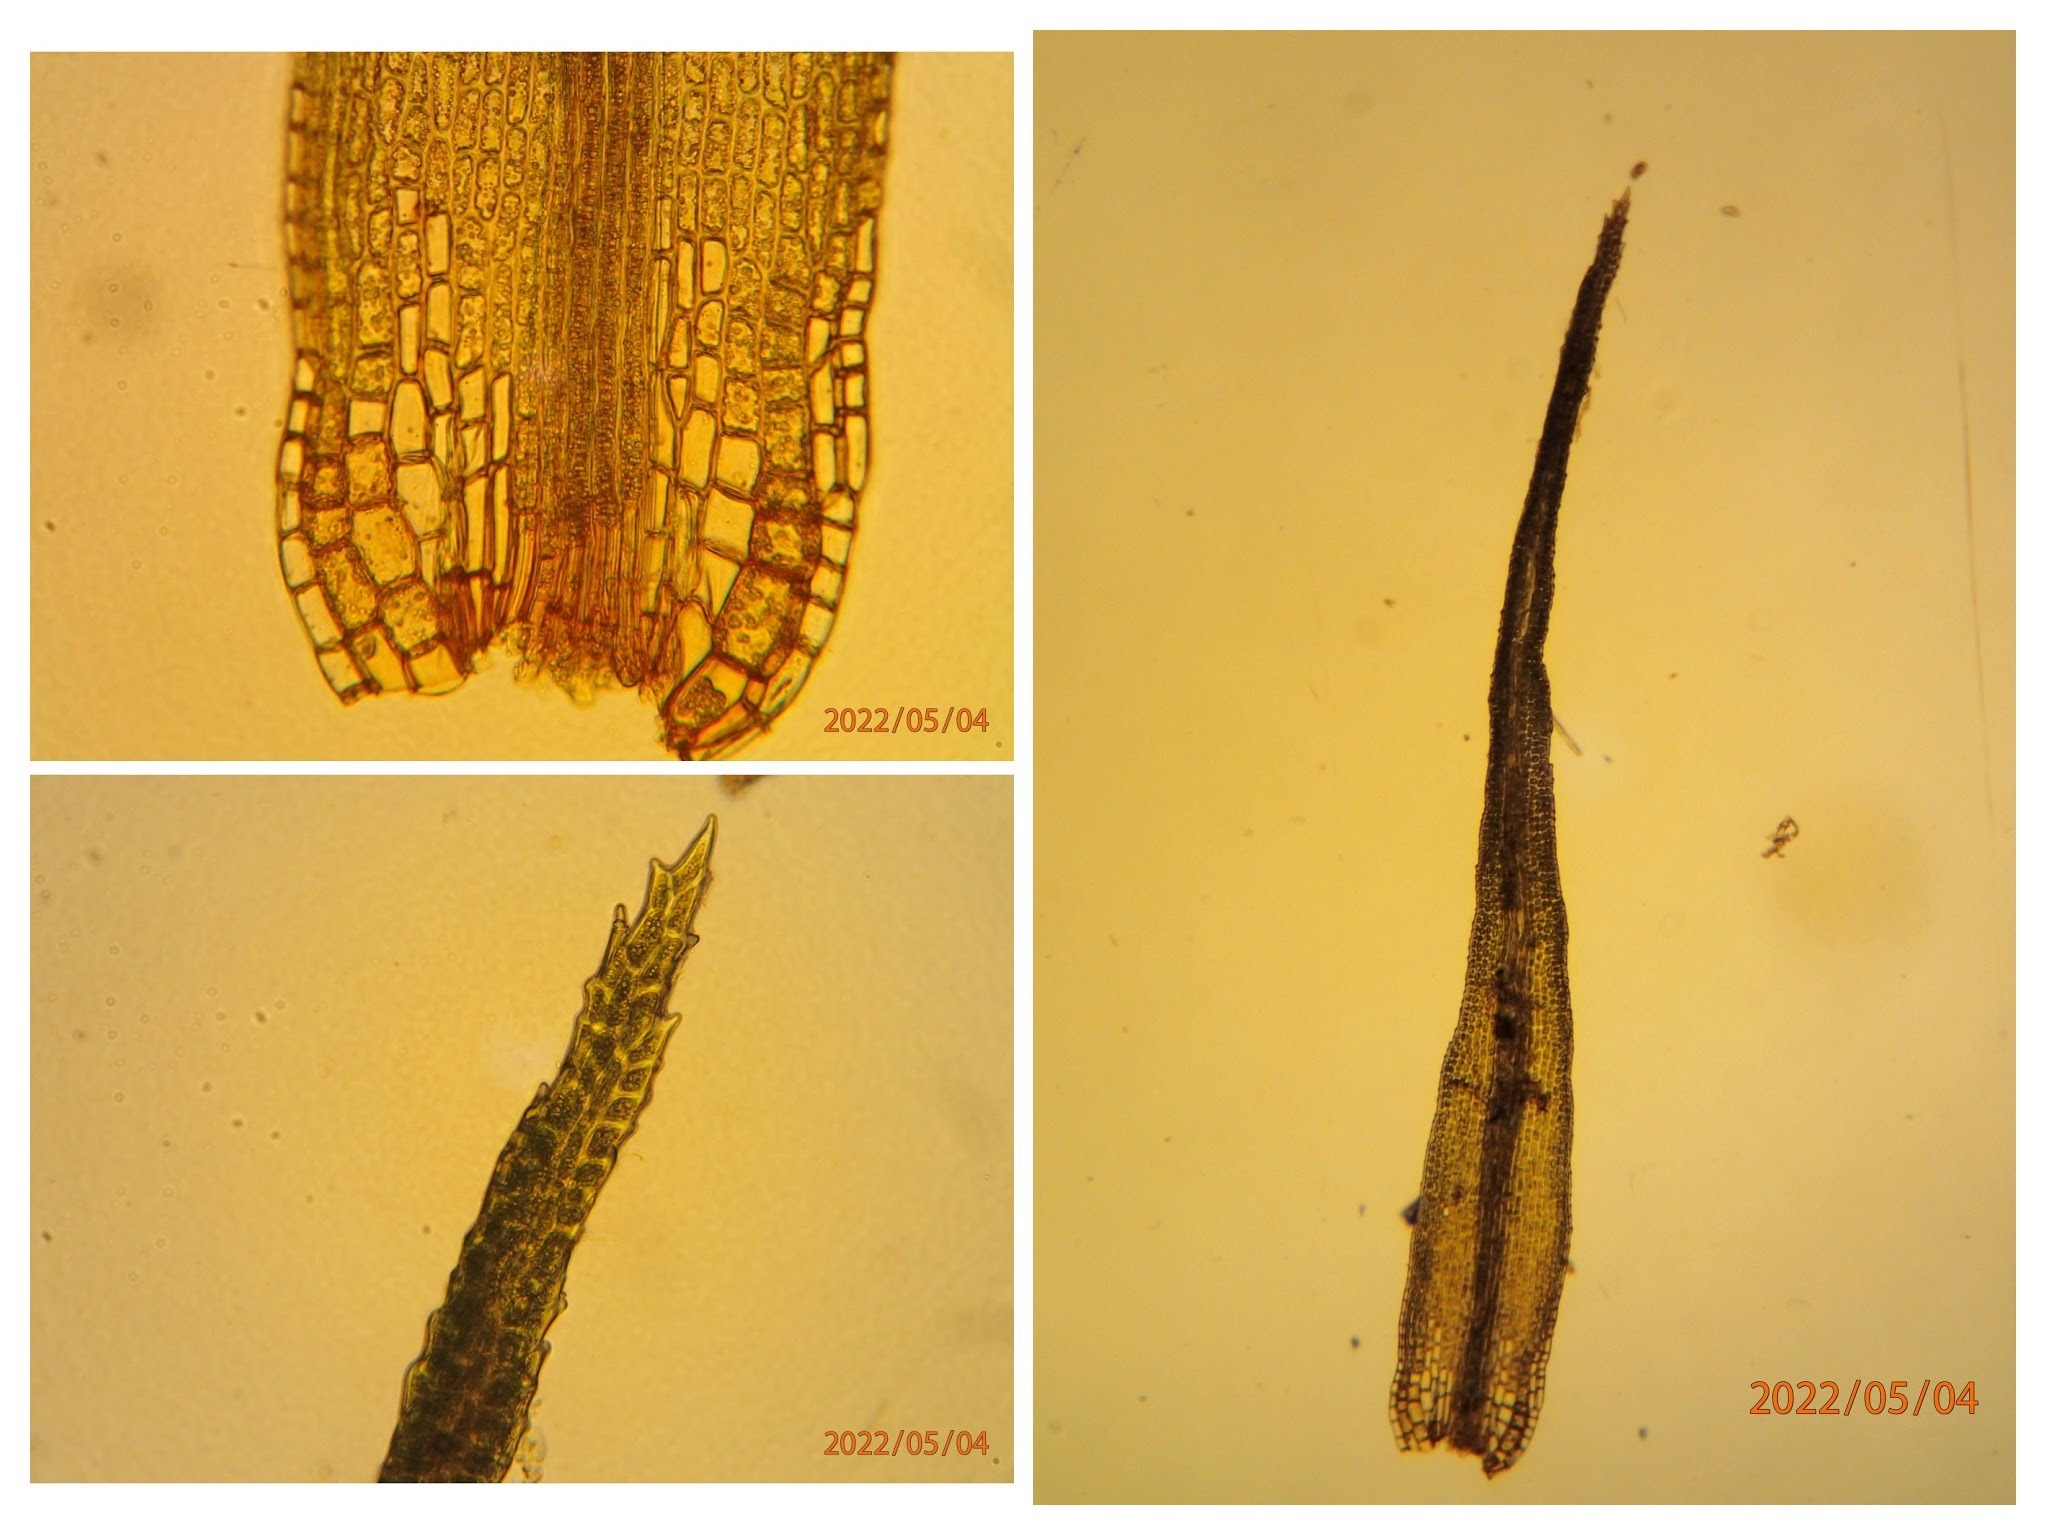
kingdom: Plantae
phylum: Bryophyta
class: Bryopsida
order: Dicranales
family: Dicranaceae
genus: Orthodicranum
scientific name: Orthodicranum montanum
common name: Tæt tyndvinge
